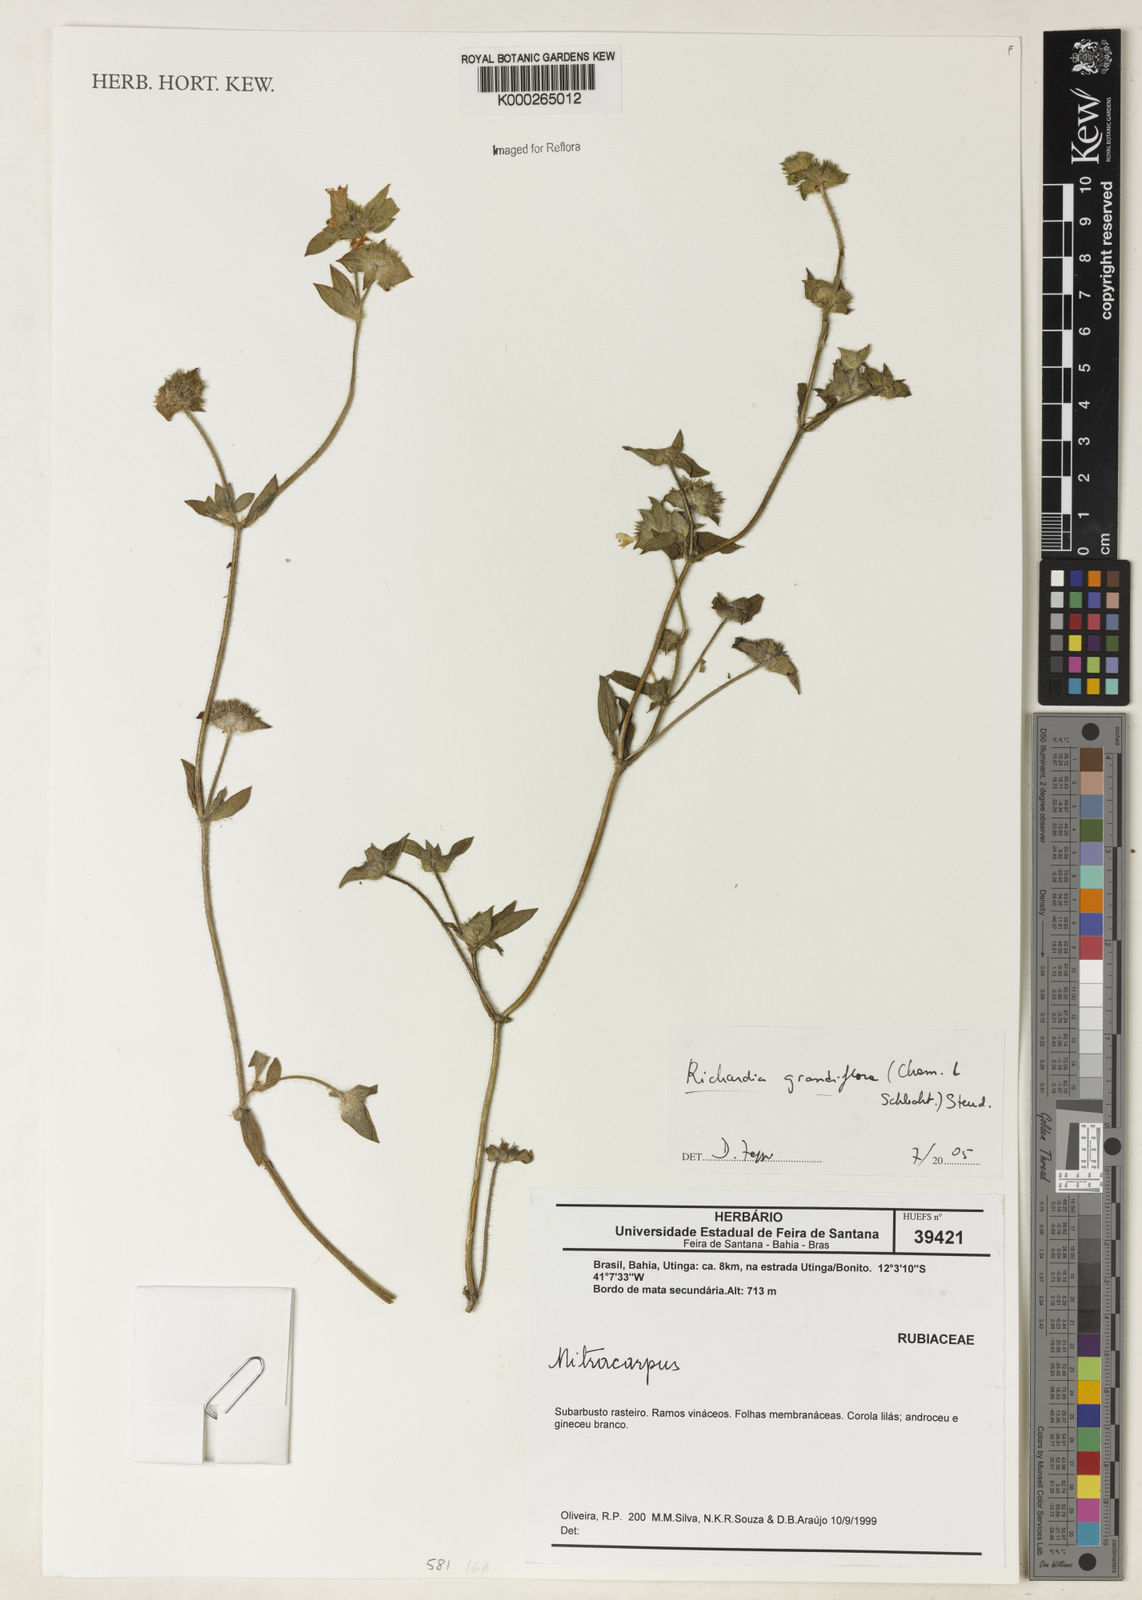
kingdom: Plantae
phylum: Tracheophyta
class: Magnoliopsida
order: Gentianales
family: Rubiaceae
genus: Richardia
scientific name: Richardia grandiflora
